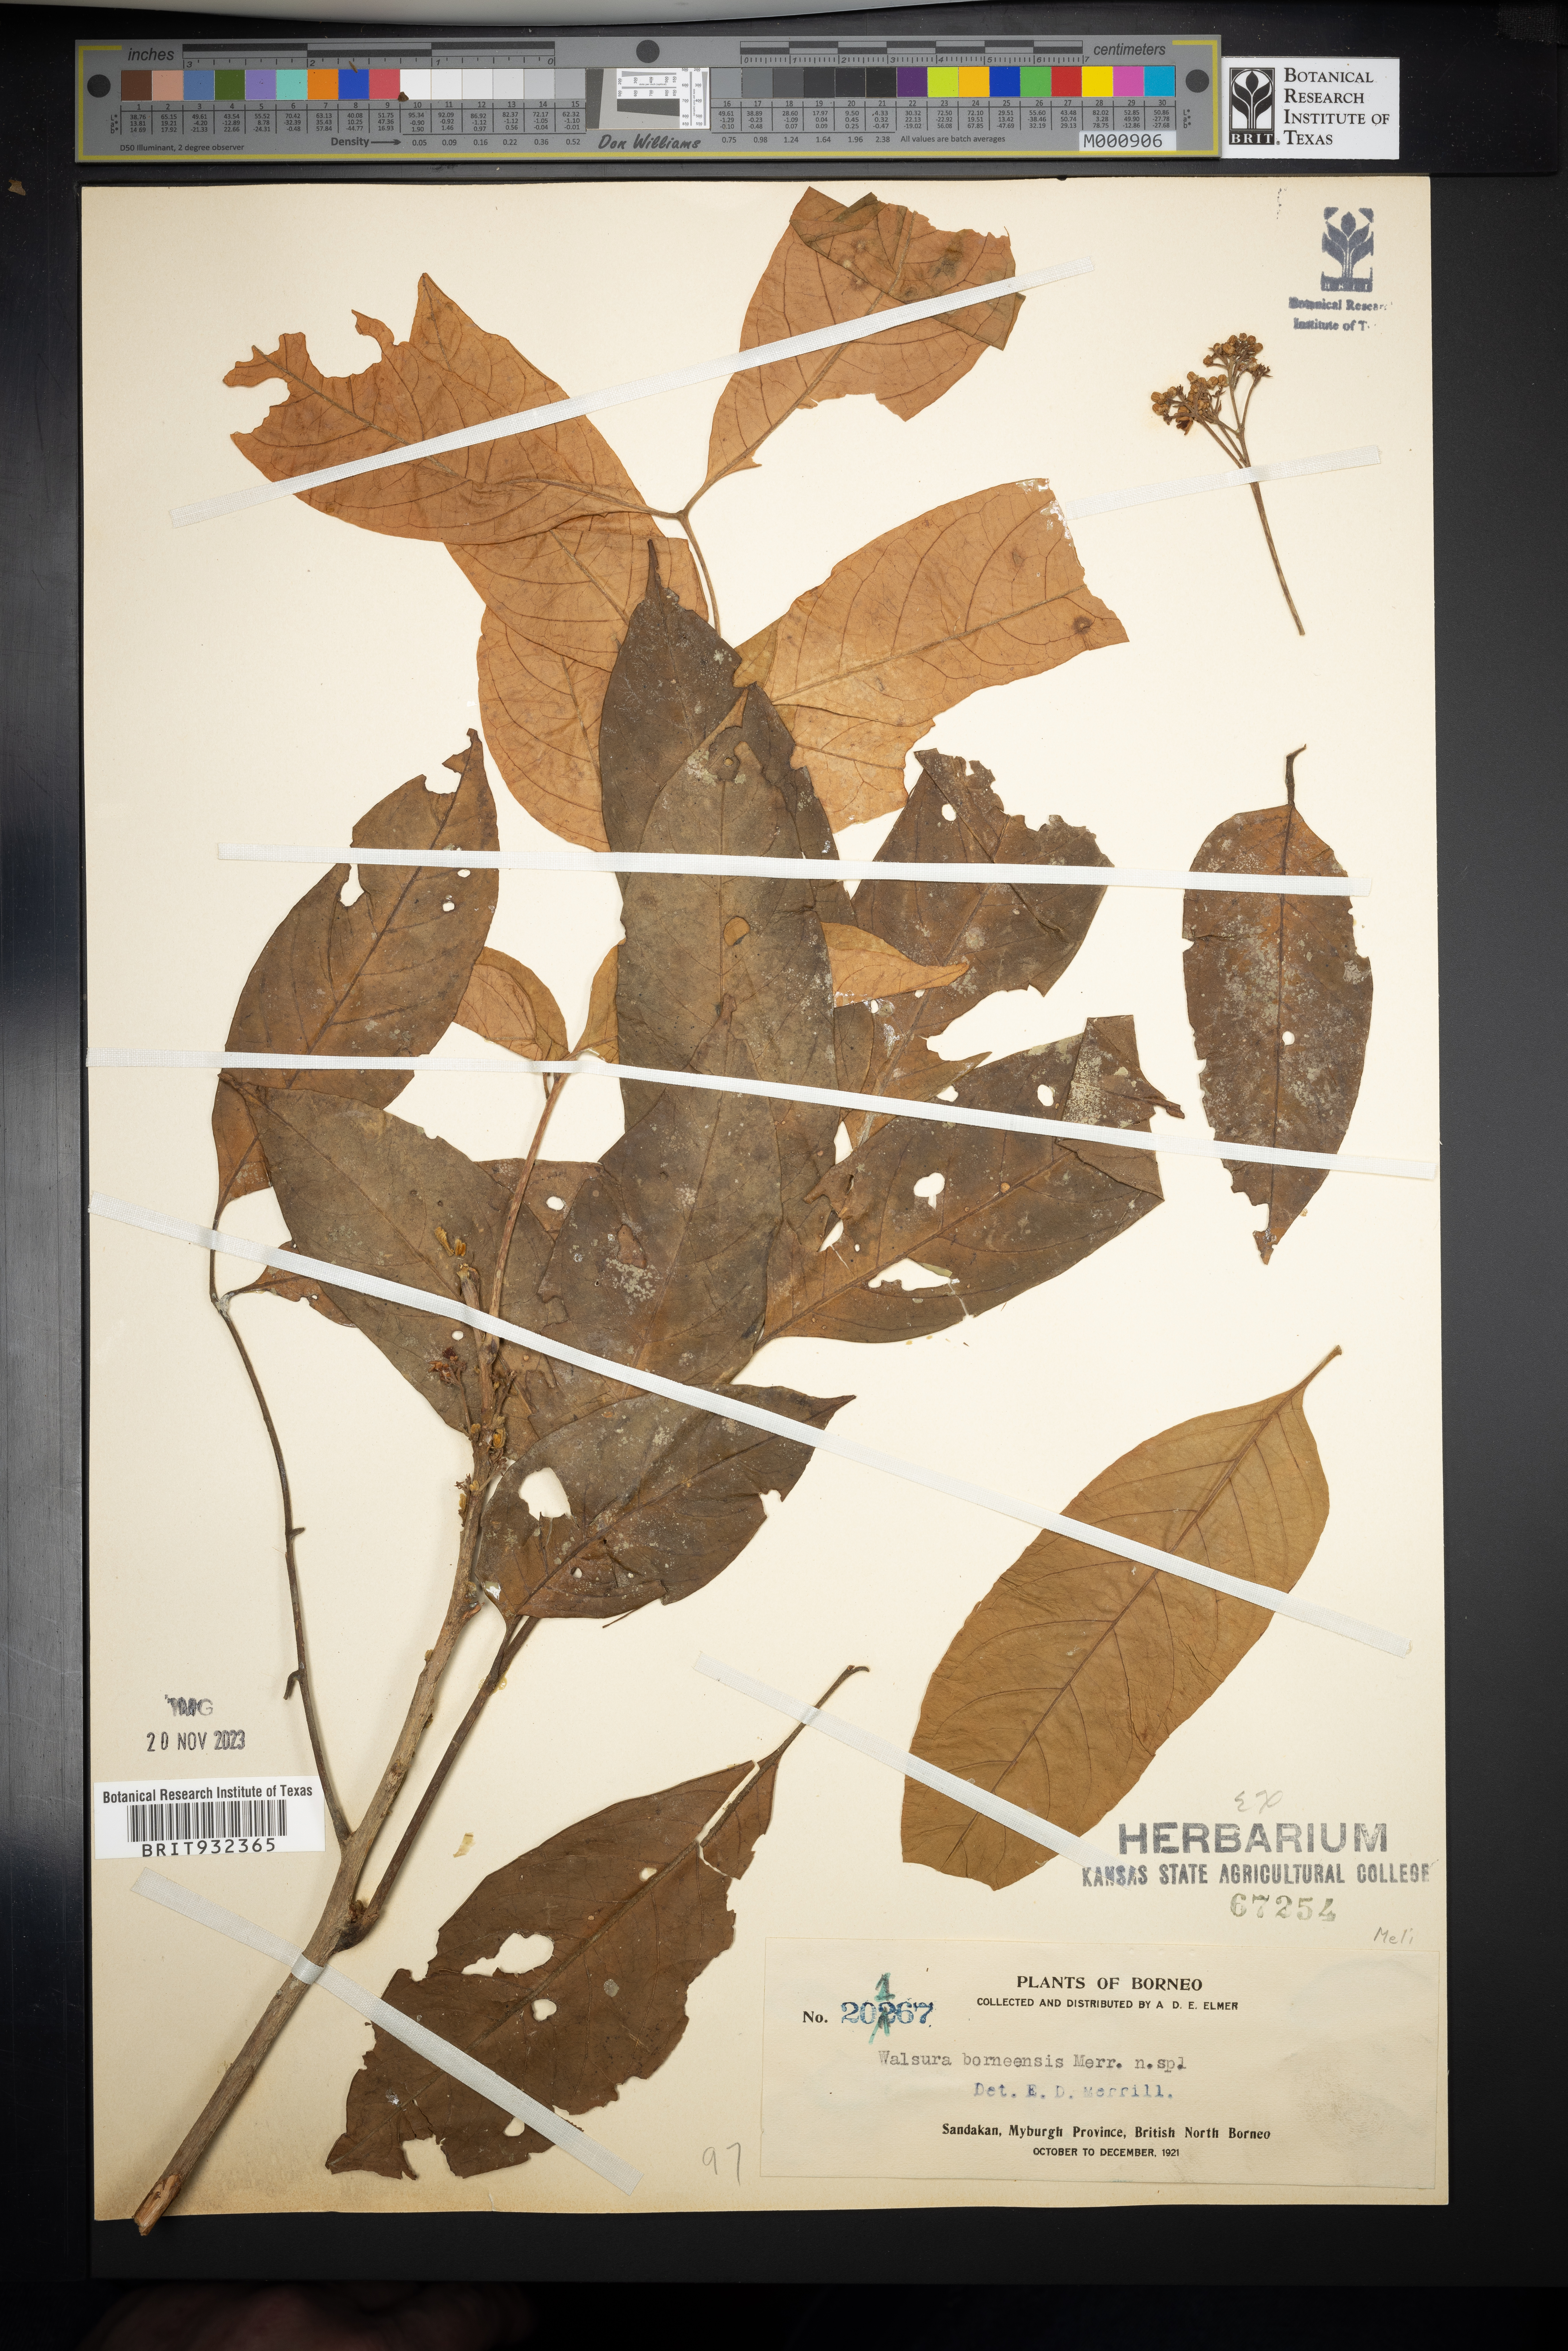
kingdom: Plantae
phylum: Tracheophyta
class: Magnoliopsida
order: Sapindales
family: Meliaceae
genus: Walsura
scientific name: Walsura
